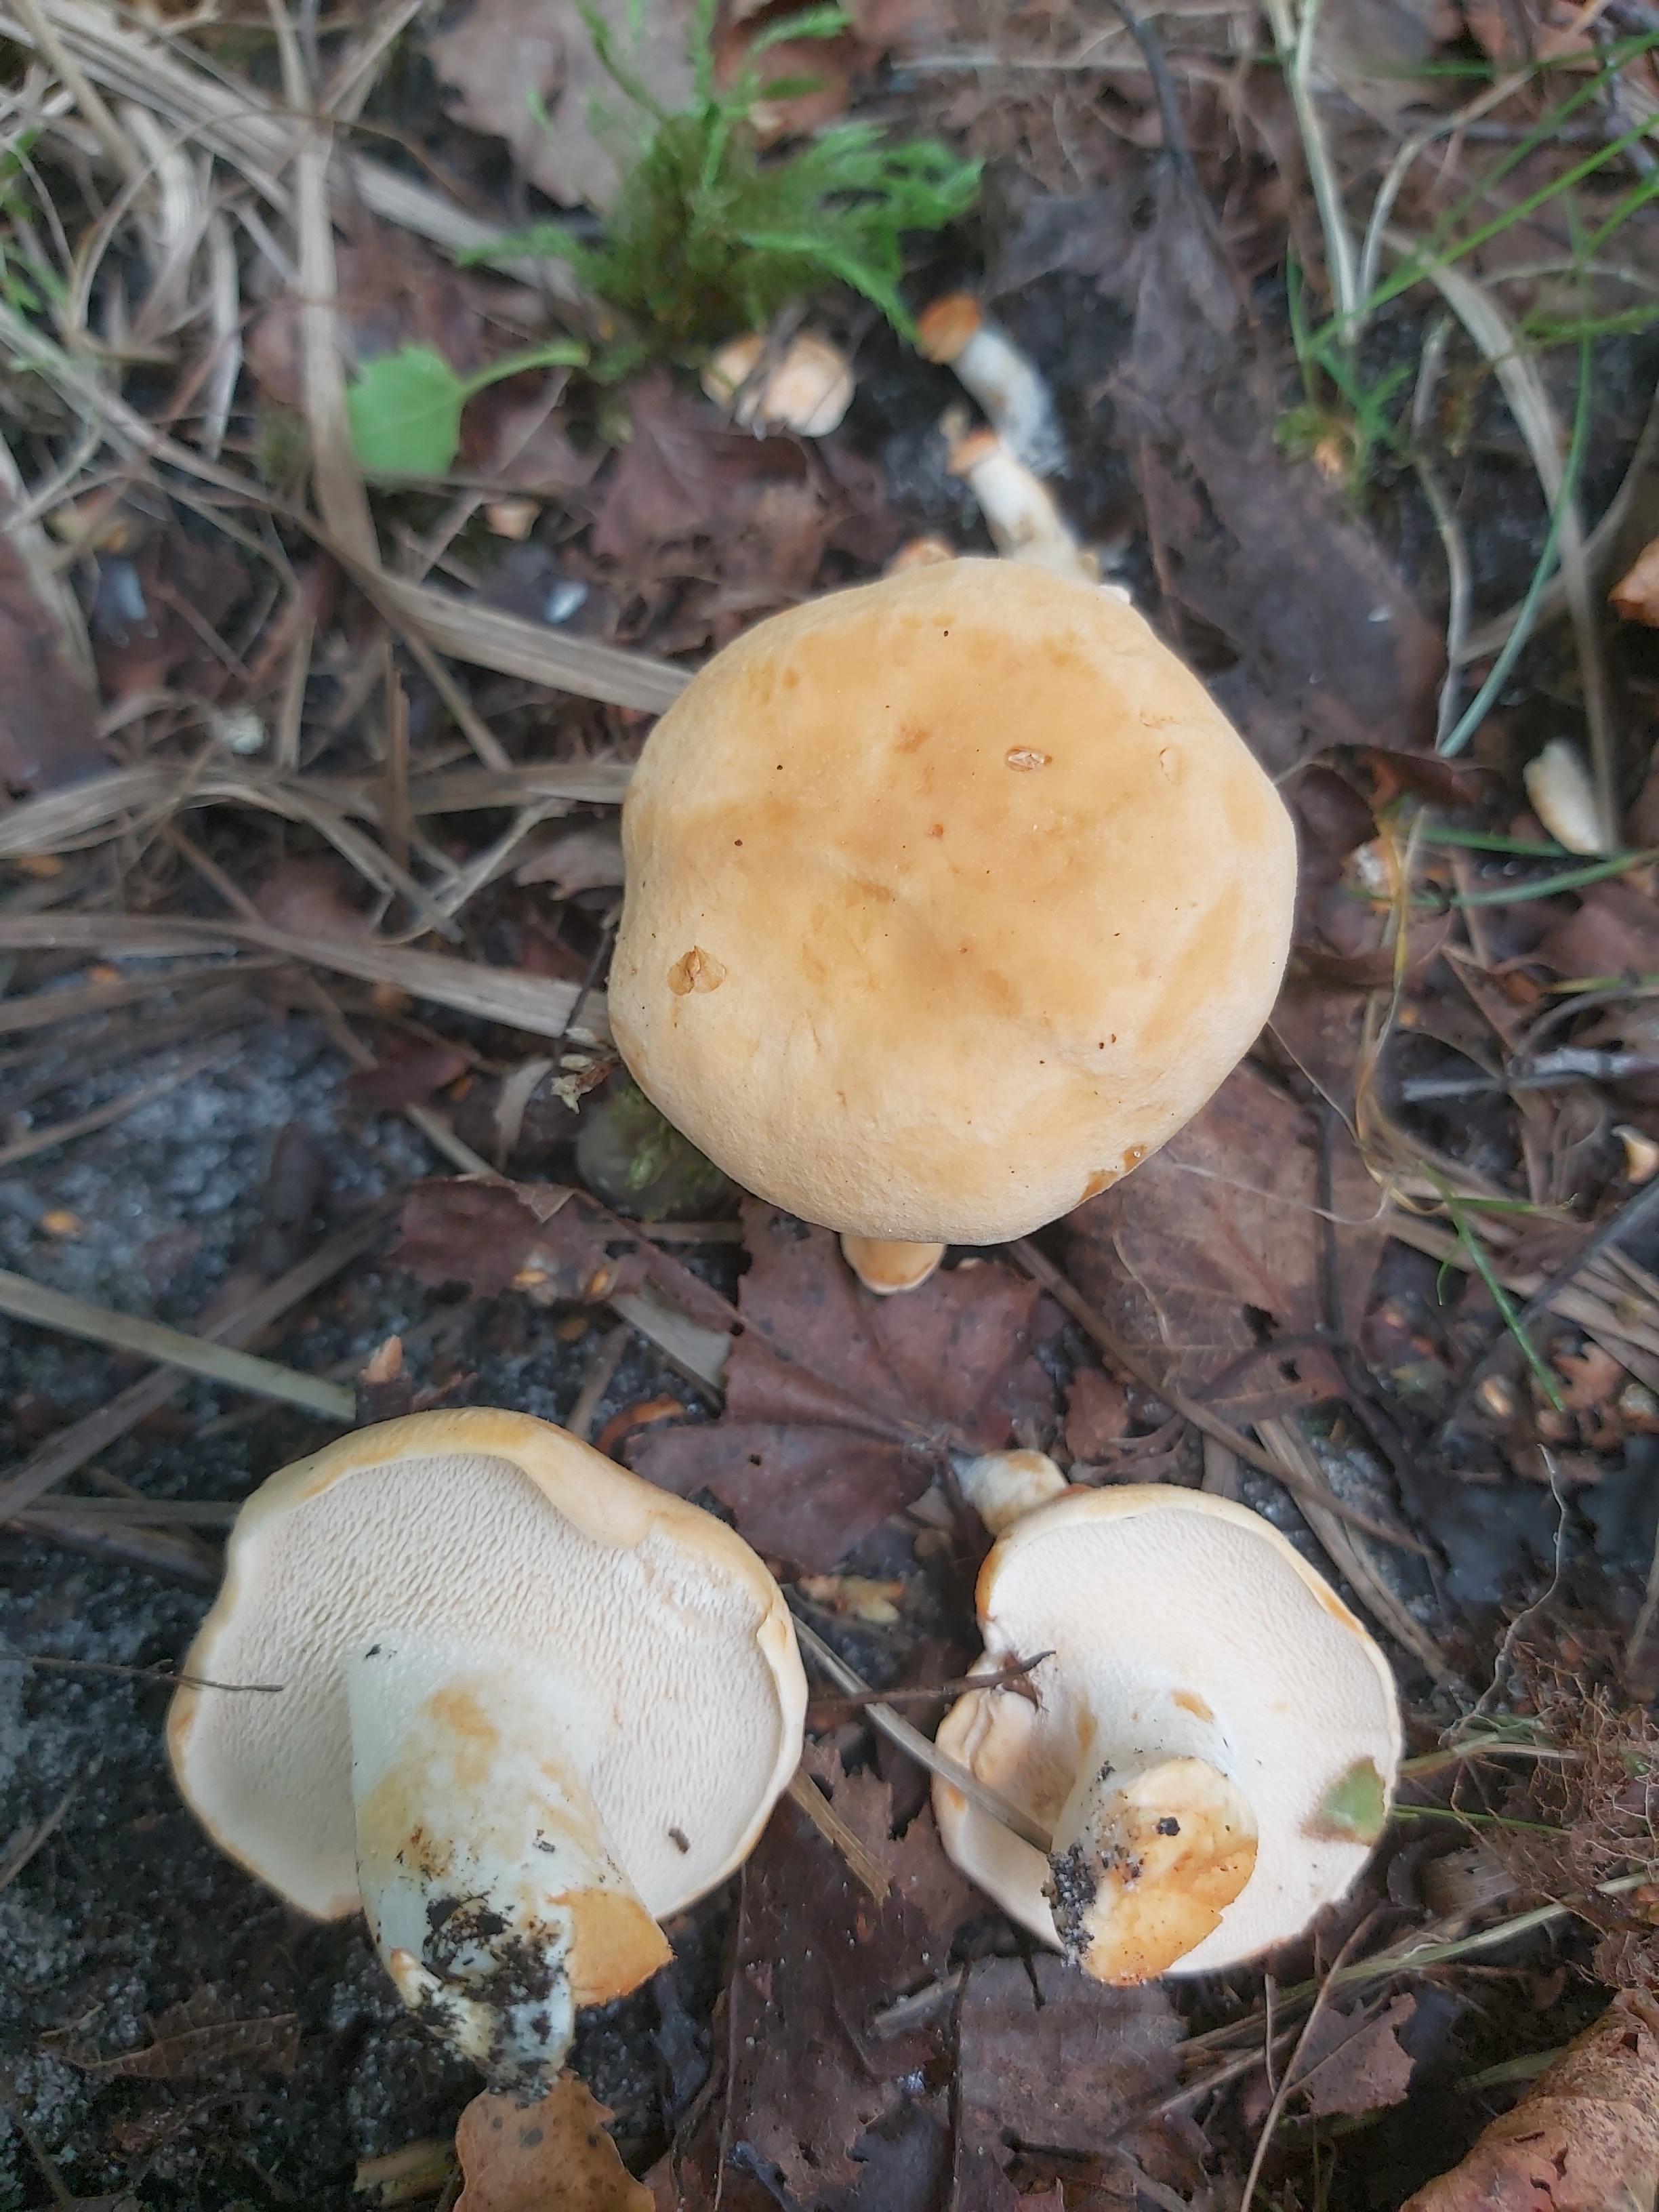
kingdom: Fungi
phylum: Basidiomycota
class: Agaricomycetes
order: Cantharellales
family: Hydnaceae
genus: Hydnum
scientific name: Hydnum
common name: pigsvamp
